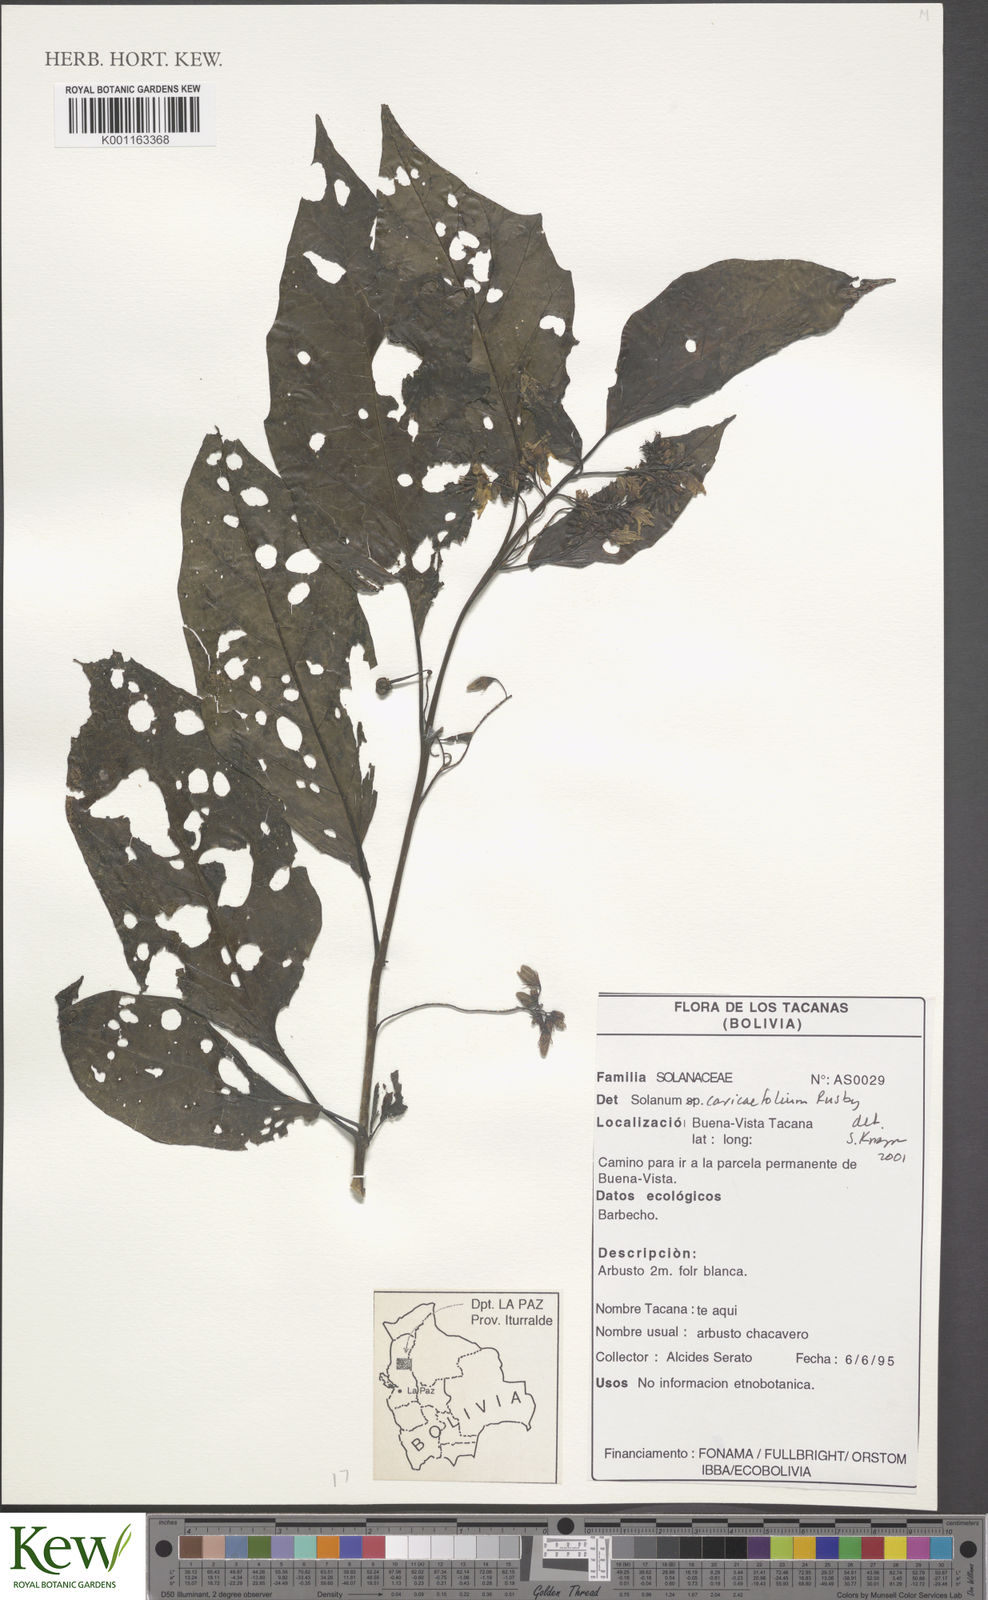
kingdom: Plantae
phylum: Tracheophyta
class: Magnoliopsida
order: Solanales
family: Solanaceae
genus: Solanum
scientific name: Solanum caricaefolium
